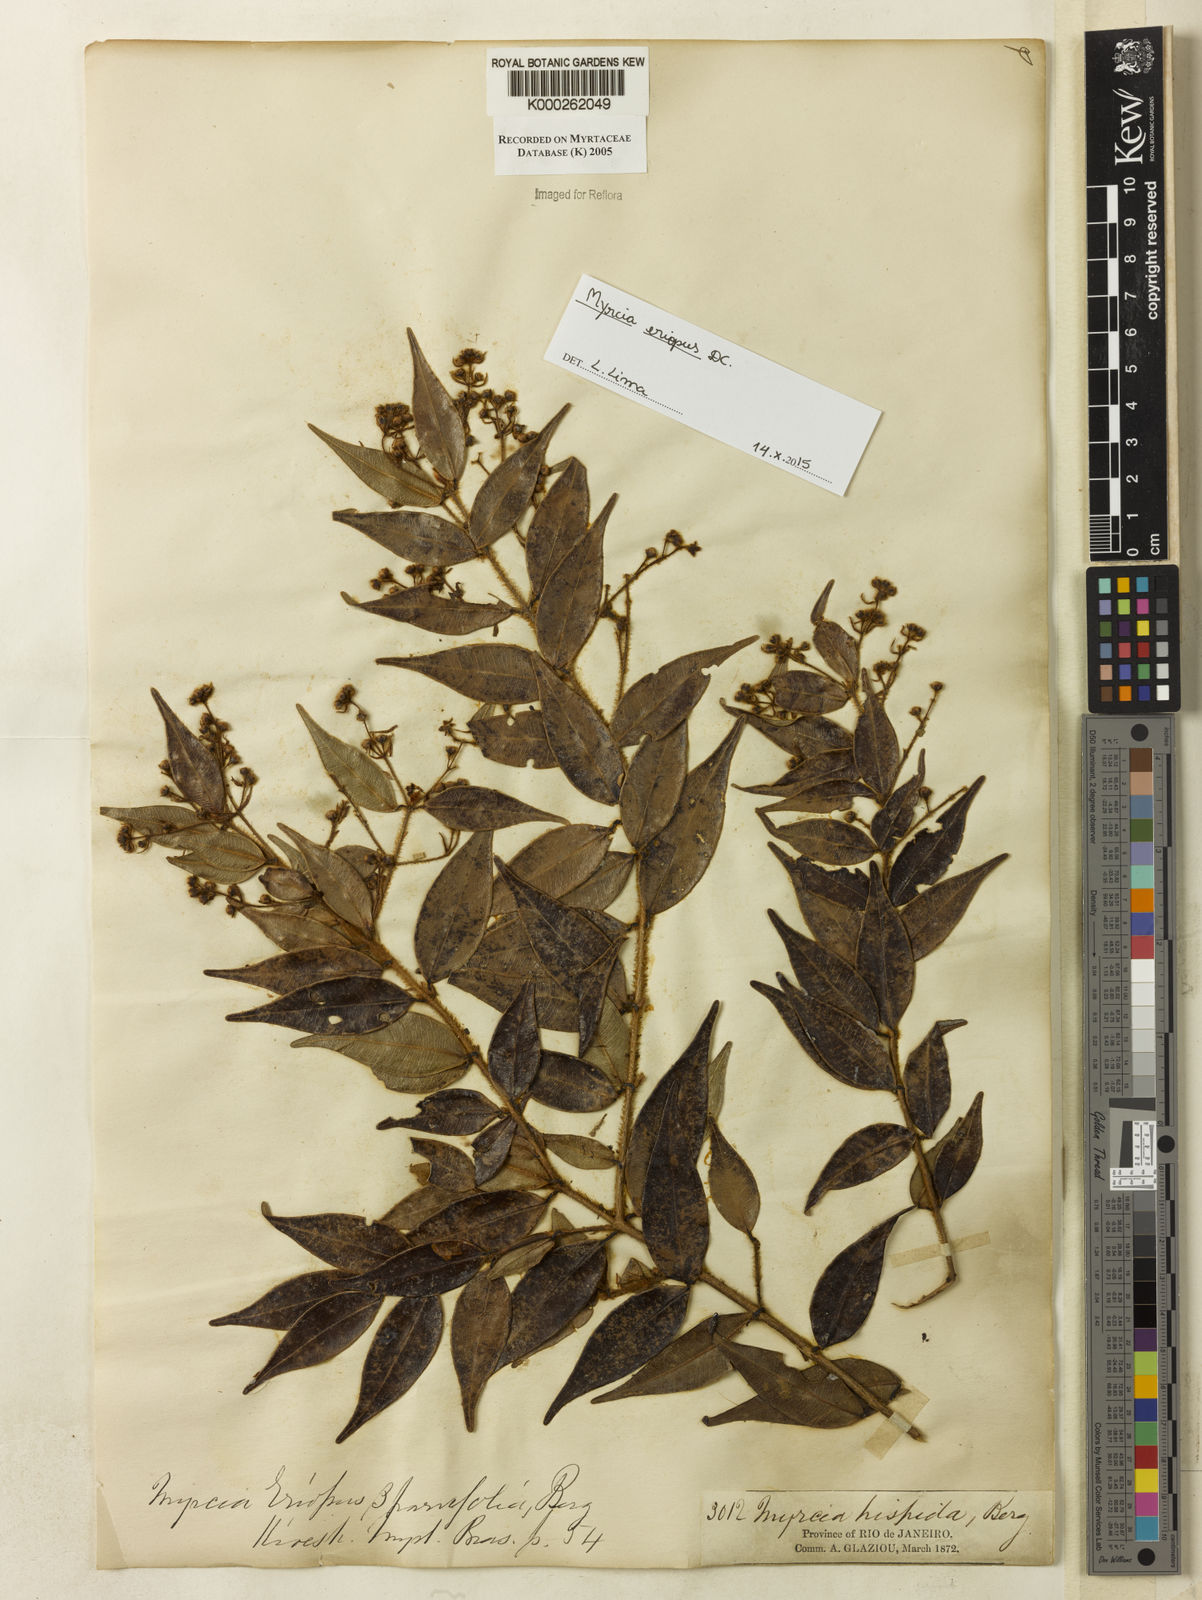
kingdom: Plantae
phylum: Tracheophyta
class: Magnoliopsida
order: Myrtales
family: Myrtaceae
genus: Myrcia
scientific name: Myrcia eriopus
